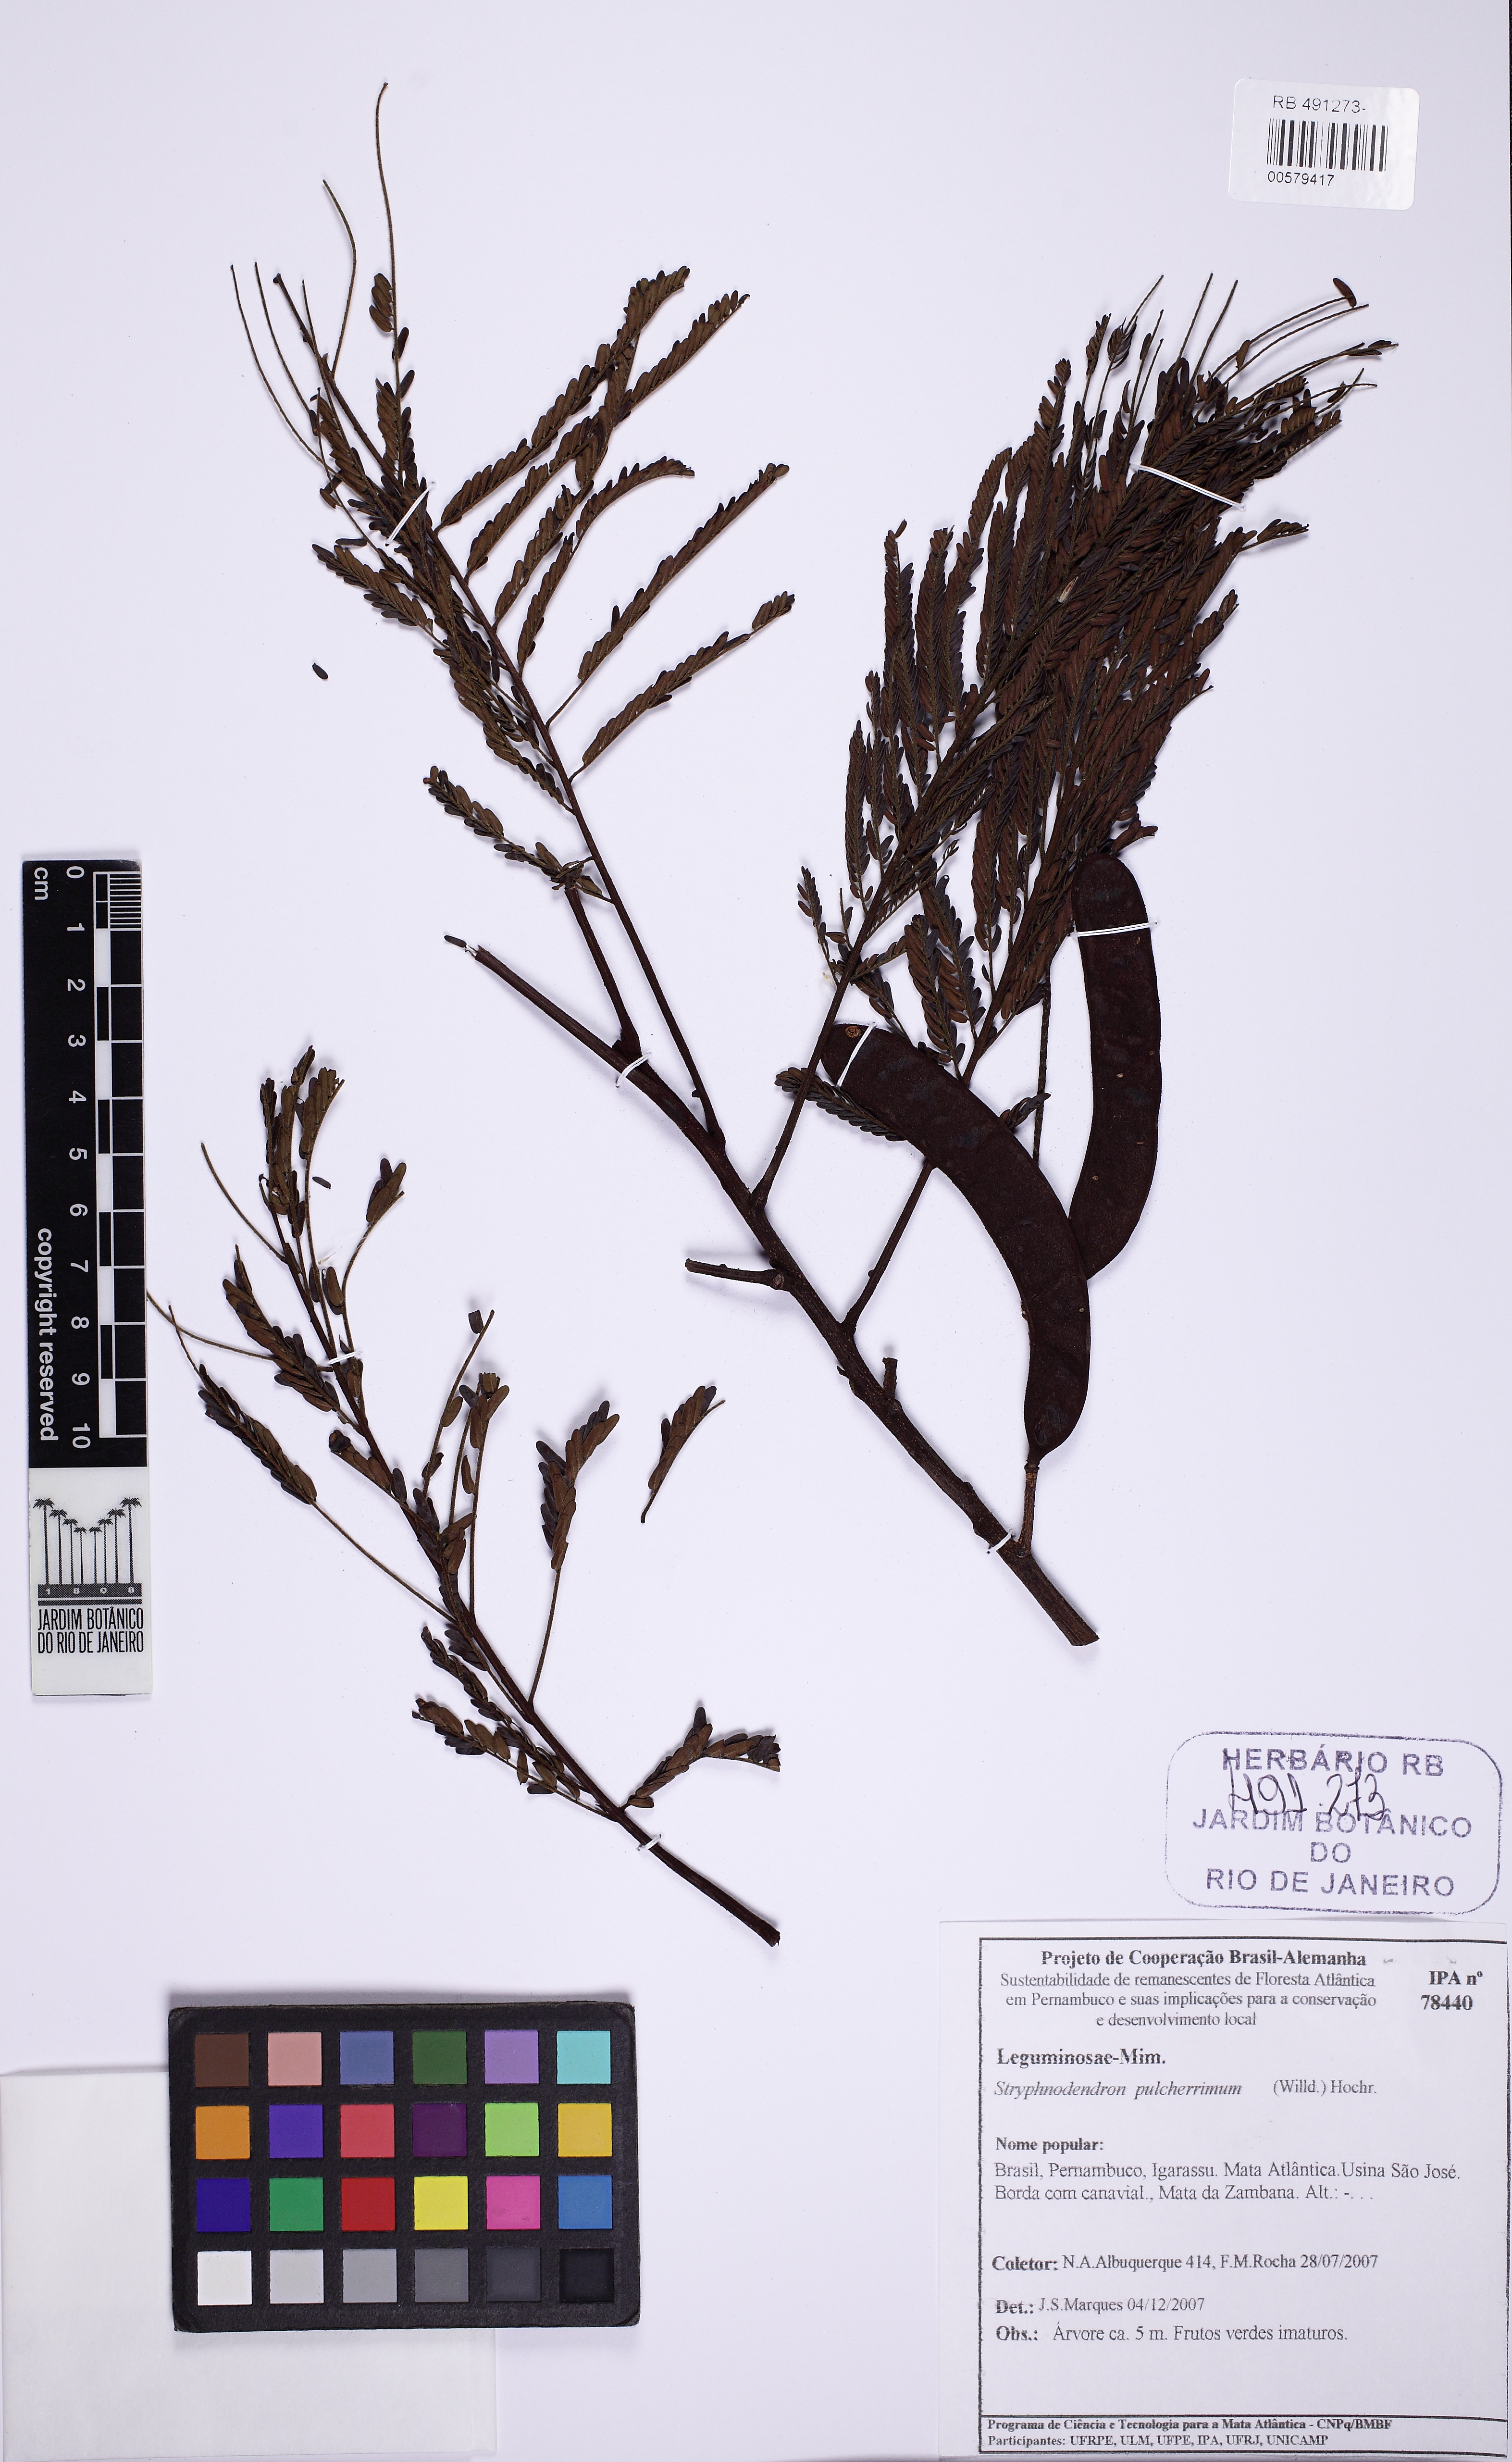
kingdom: Plantae
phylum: Tracheophyta
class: Magnoliopsida
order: Fabales
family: Fabaceae
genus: Stryphnodendron
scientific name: Stryphnodendron pulcherrimum
